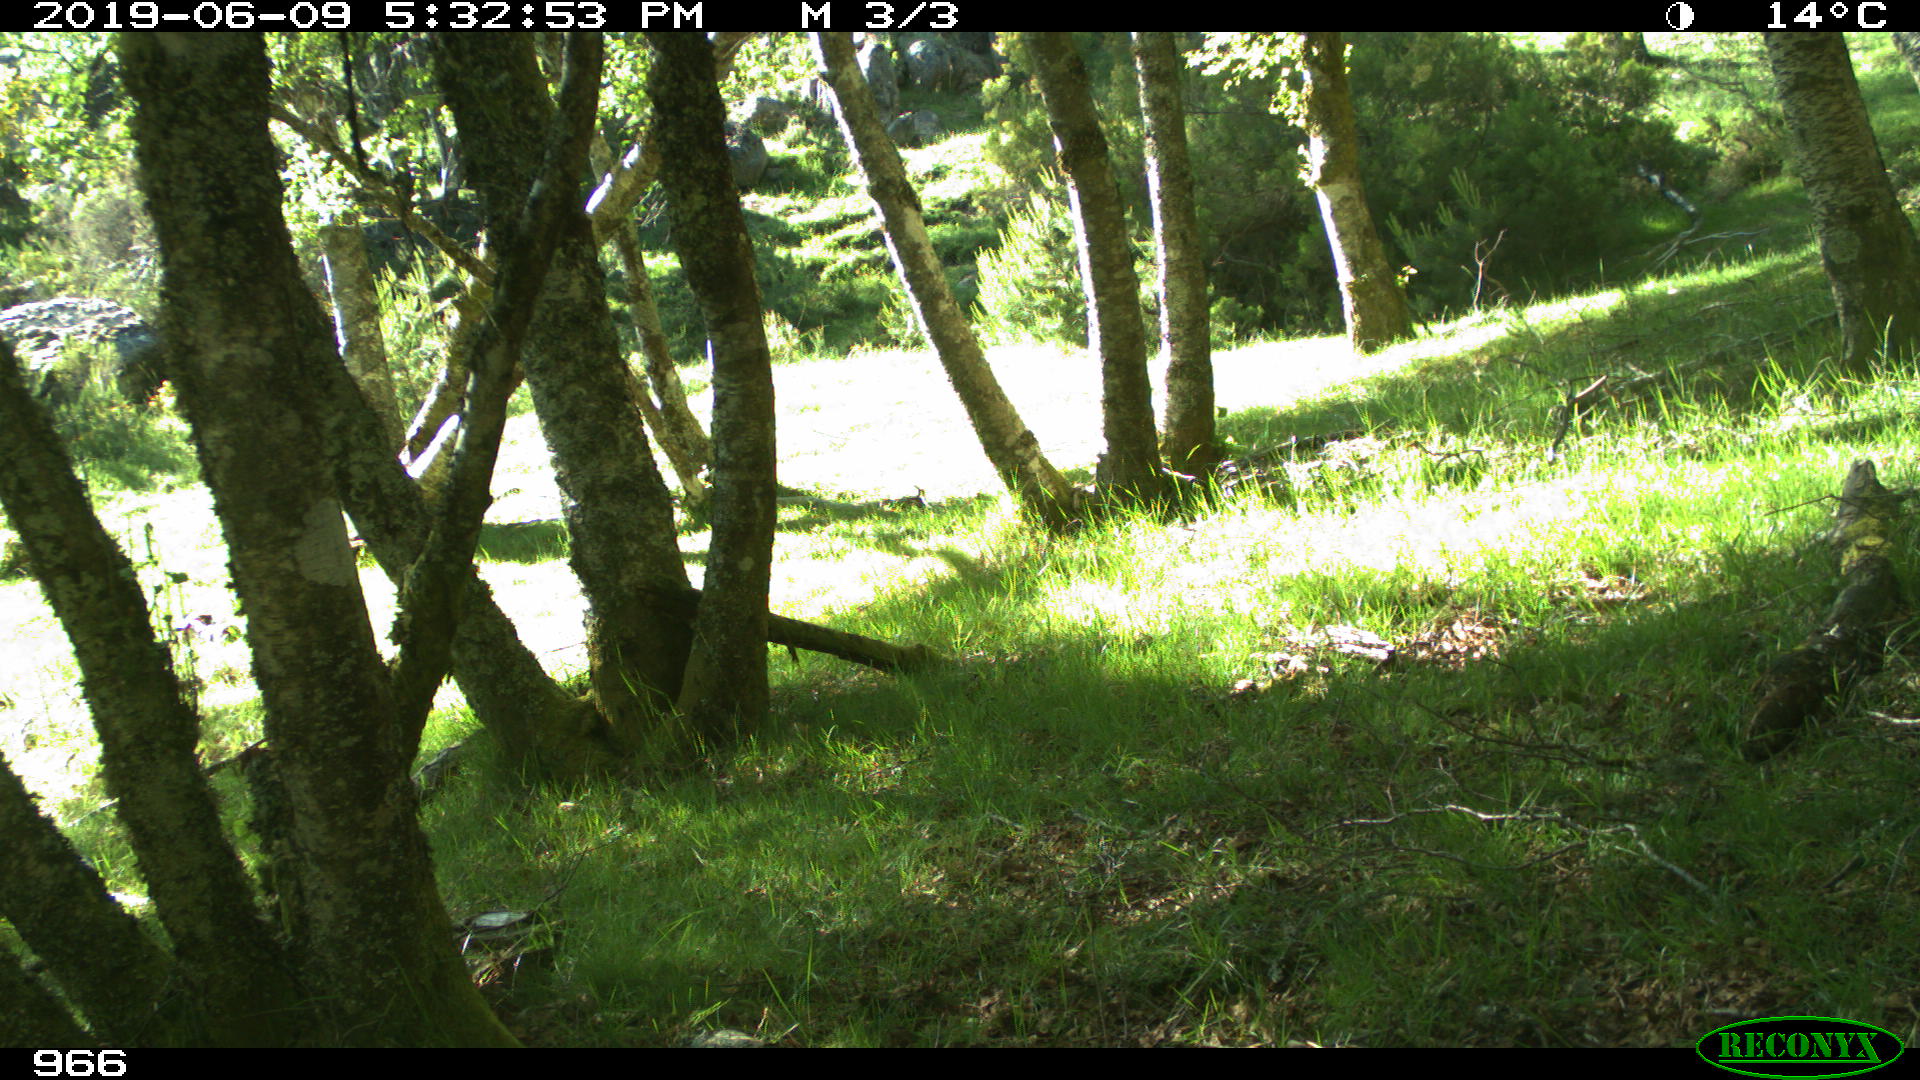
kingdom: Animalia
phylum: Chordata
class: Mammalia
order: Perissodactyla
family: Equidae
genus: Equus
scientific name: Equus caballus
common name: Horse
